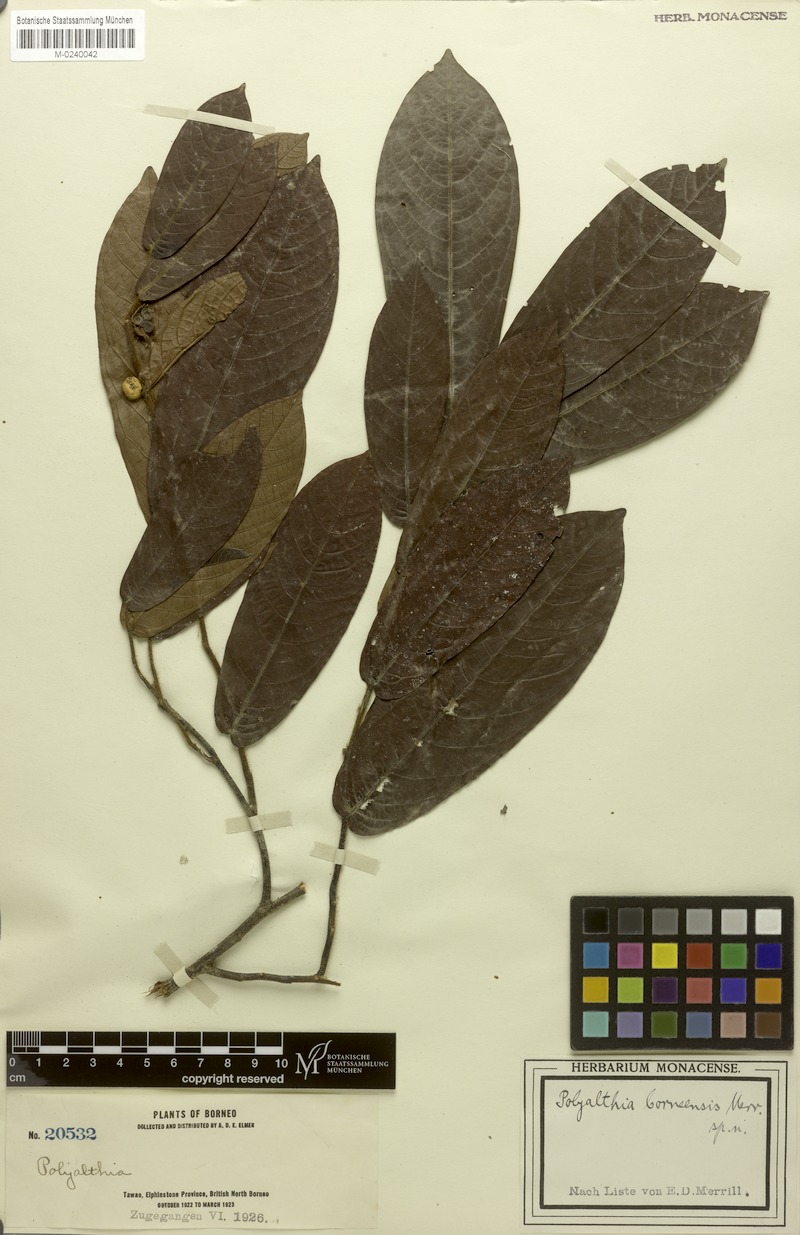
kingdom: Plantae
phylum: Tracheophyta
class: Magnoliopsida
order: Magnoliales
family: Annonaceae
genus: Polyalthia
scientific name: Polyalthia borneensis
